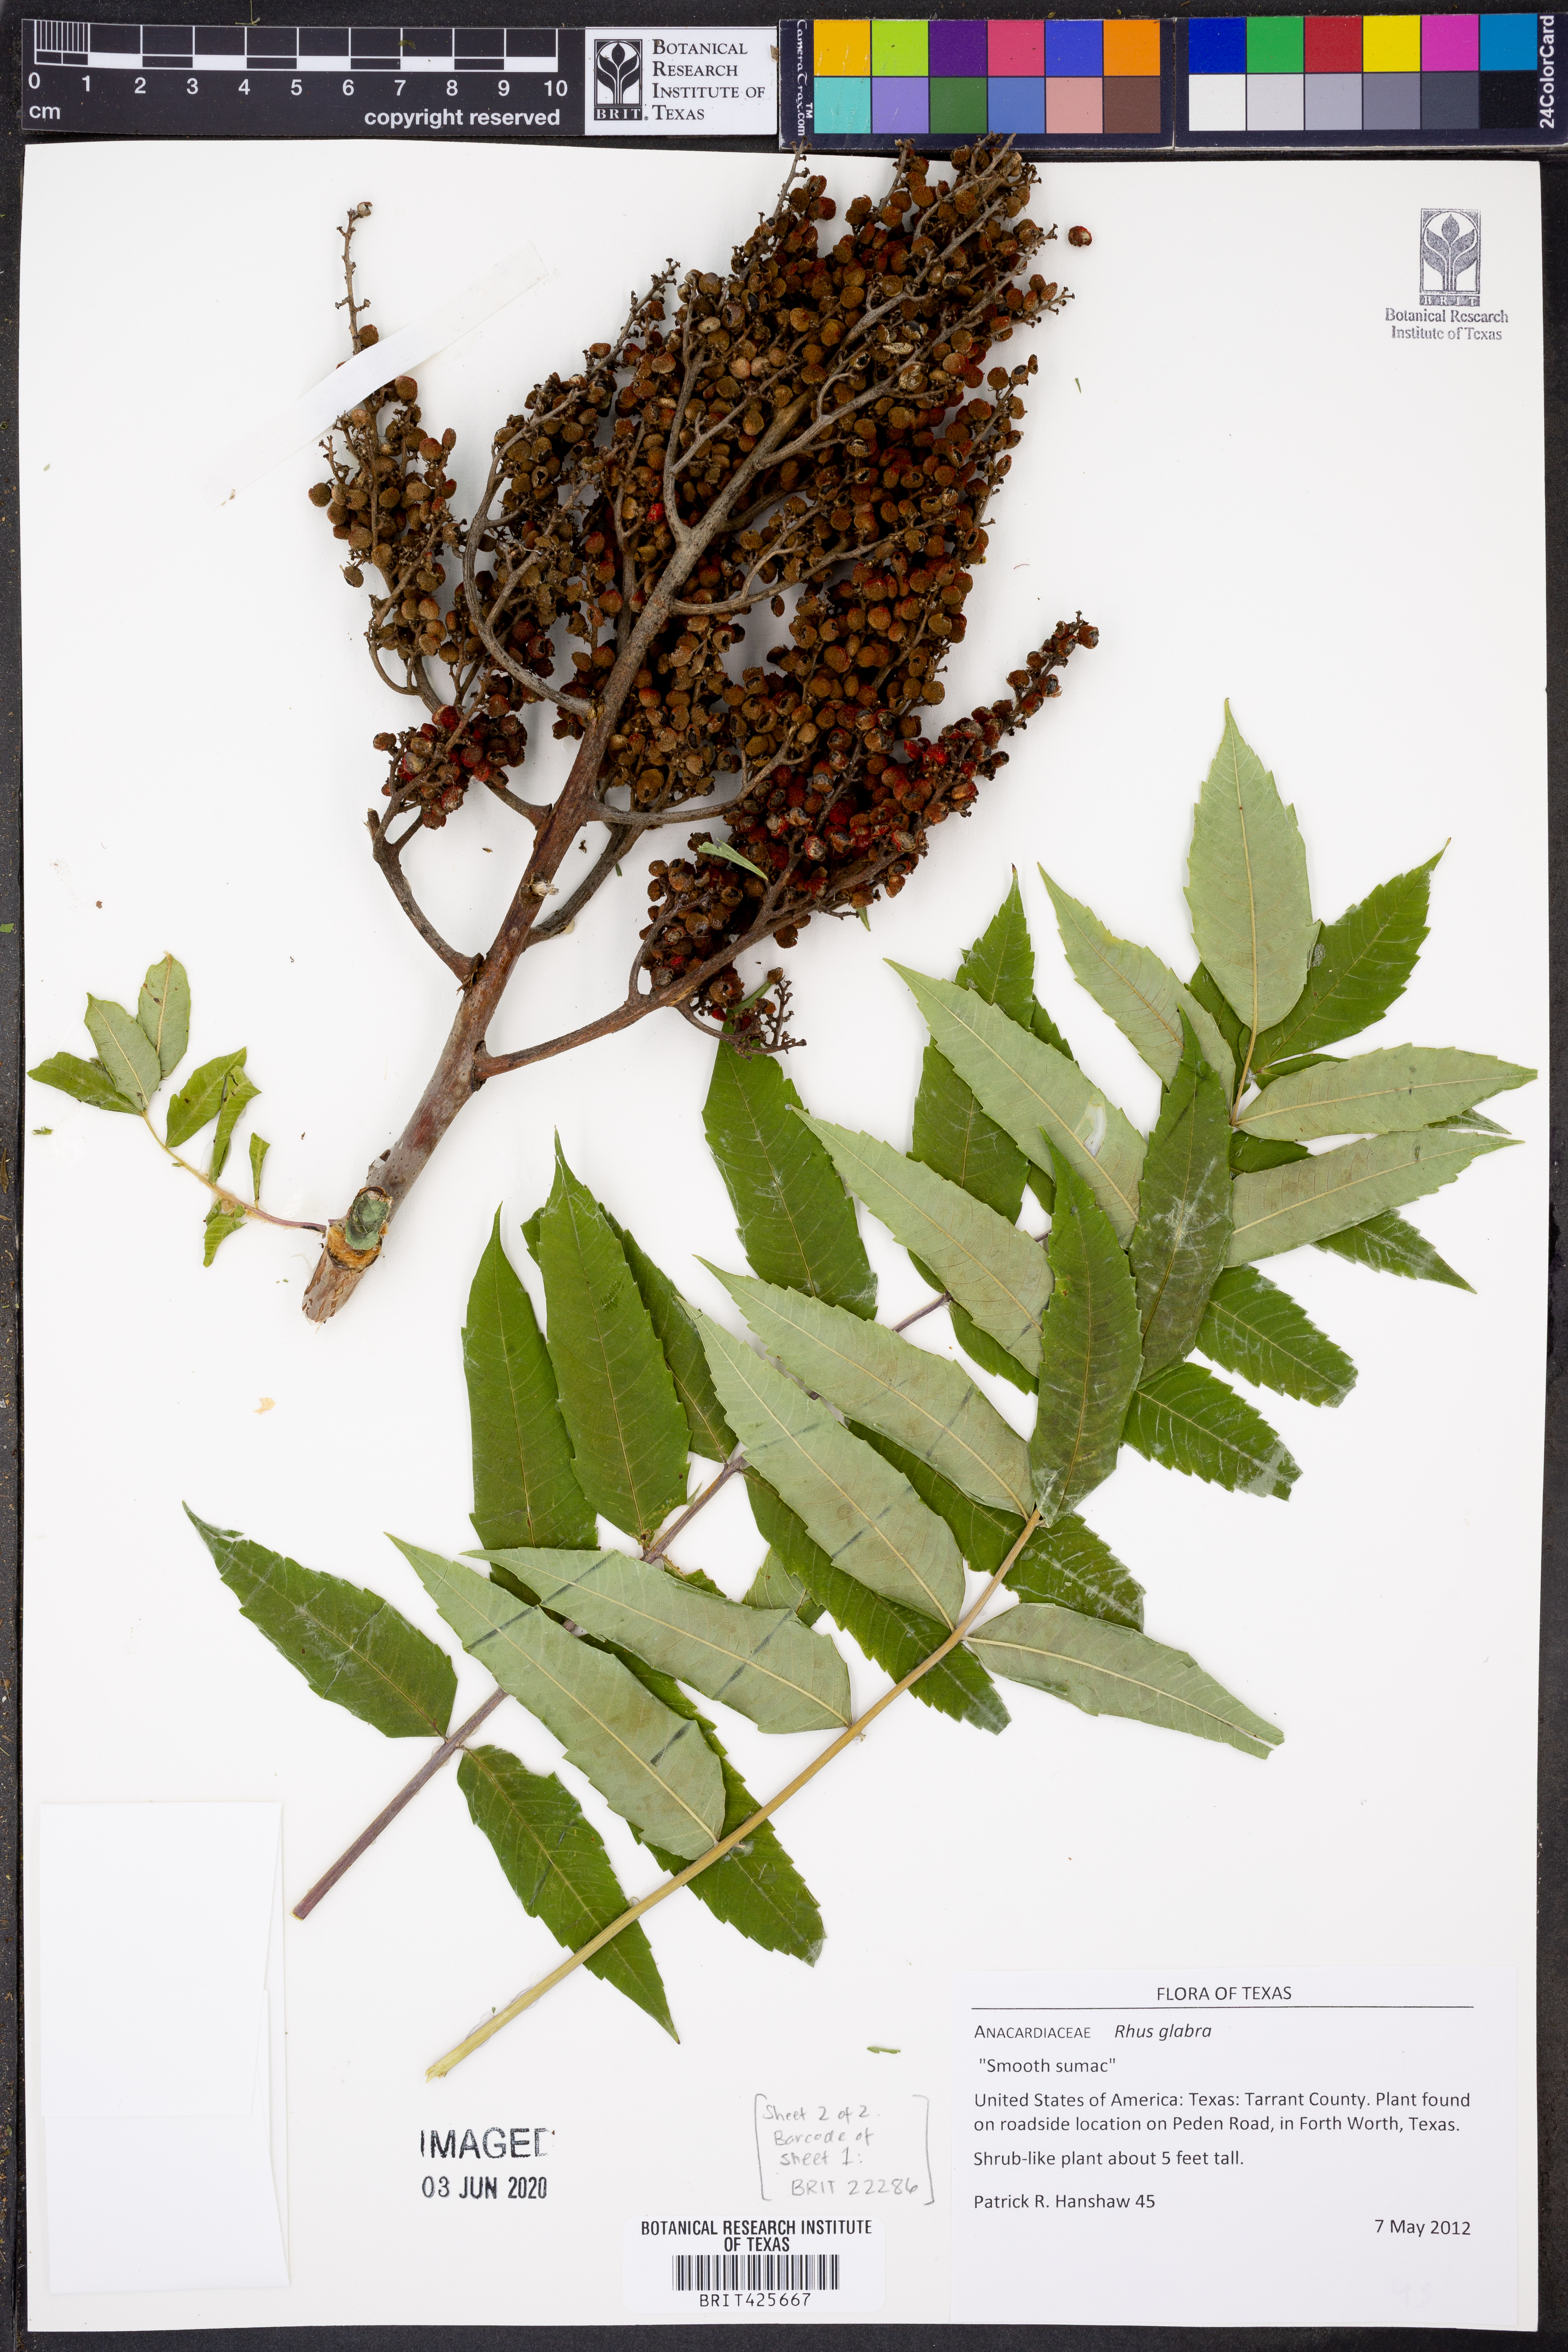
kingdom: Plantae
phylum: Tracheophyta
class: Magnoliopsida
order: Sapindales
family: Anacardiaceae
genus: Rhus
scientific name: Rhus glabra
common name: Scarlet sumac
